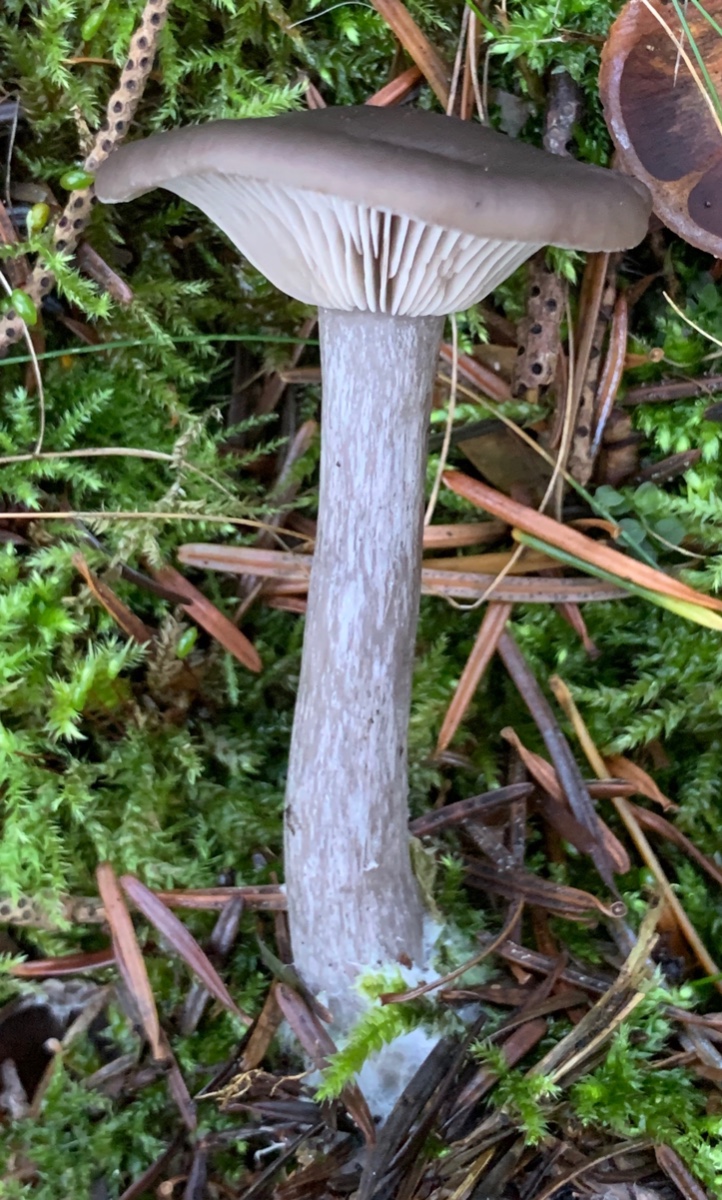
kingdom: Fungi
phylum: Basidiomycota
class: Agaricomycetes
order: Agaricales
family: Pseudoclitocybaceae
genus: Pseudoclitocybe
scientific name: Pseudoclitocybe cyathiformis
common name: almindelig bægertragthat
